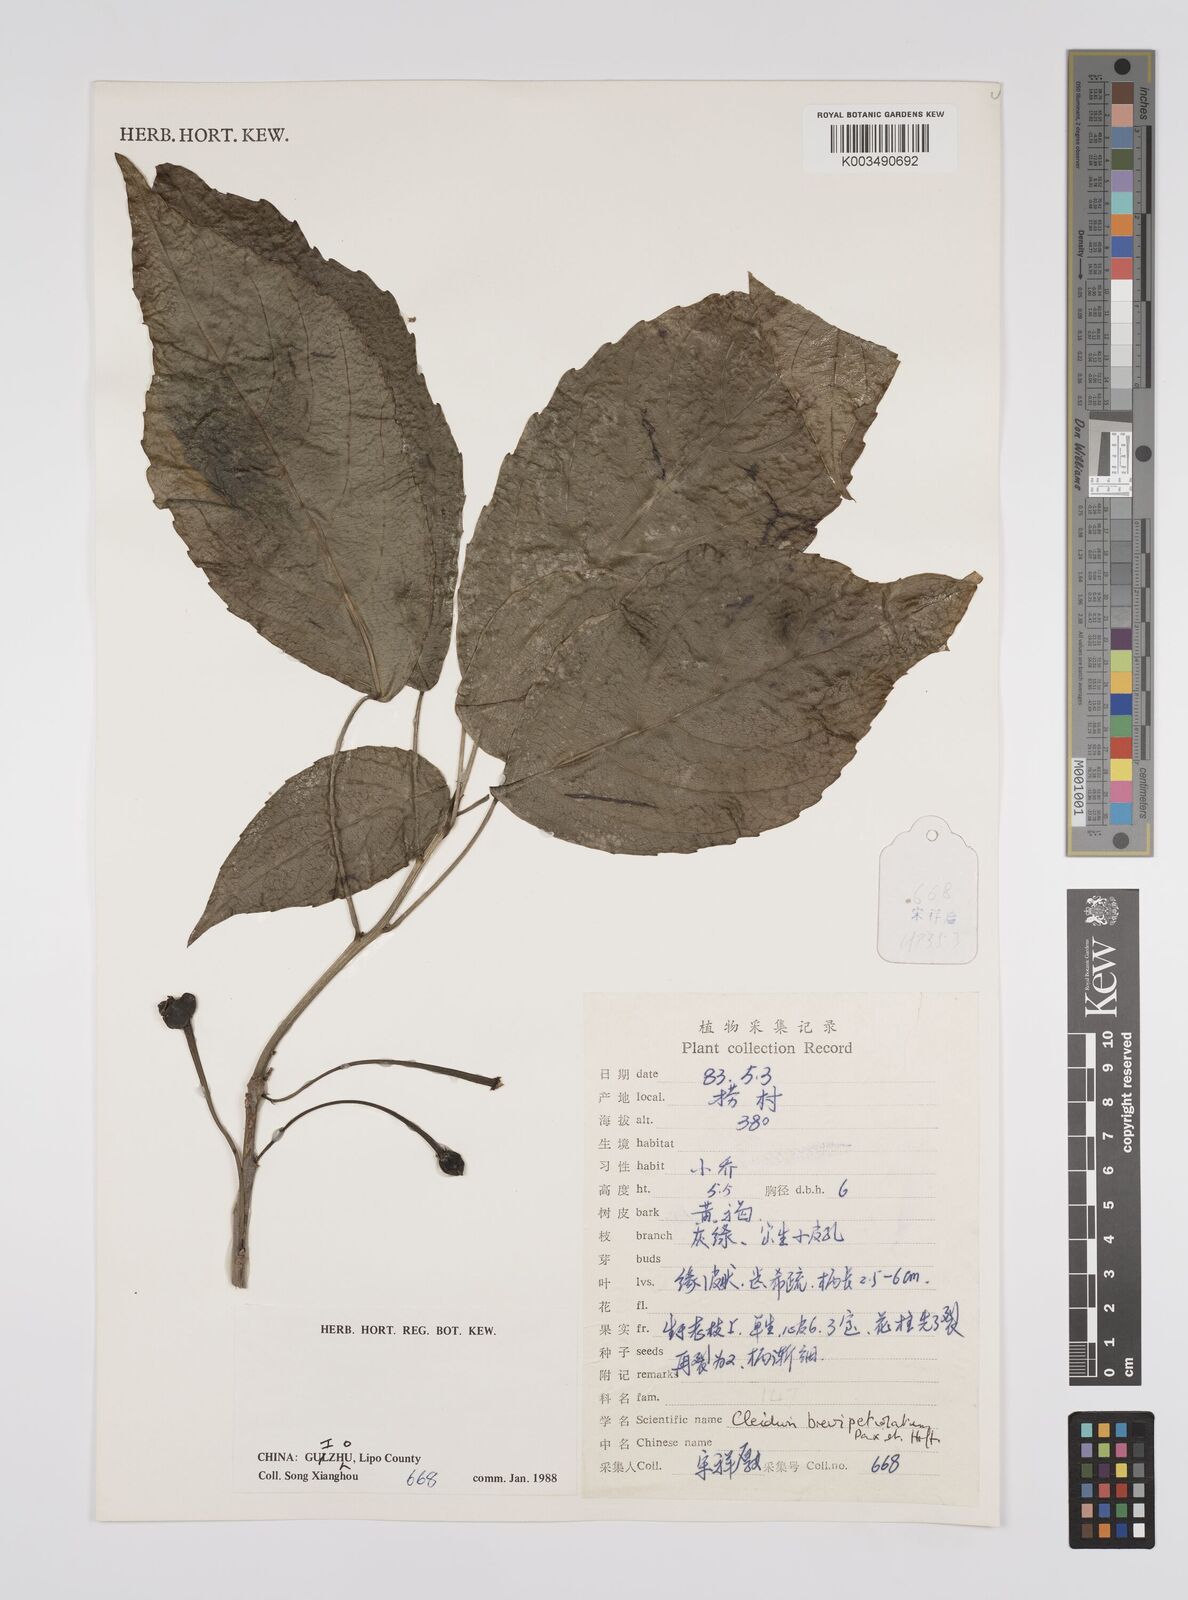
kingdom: Plantae
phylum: Tracheophyta
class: Magnoliopsida
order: Malpighiales
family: Euphorbiaceae
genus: Cleidion
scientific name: Cleidion brevipetiolatum
